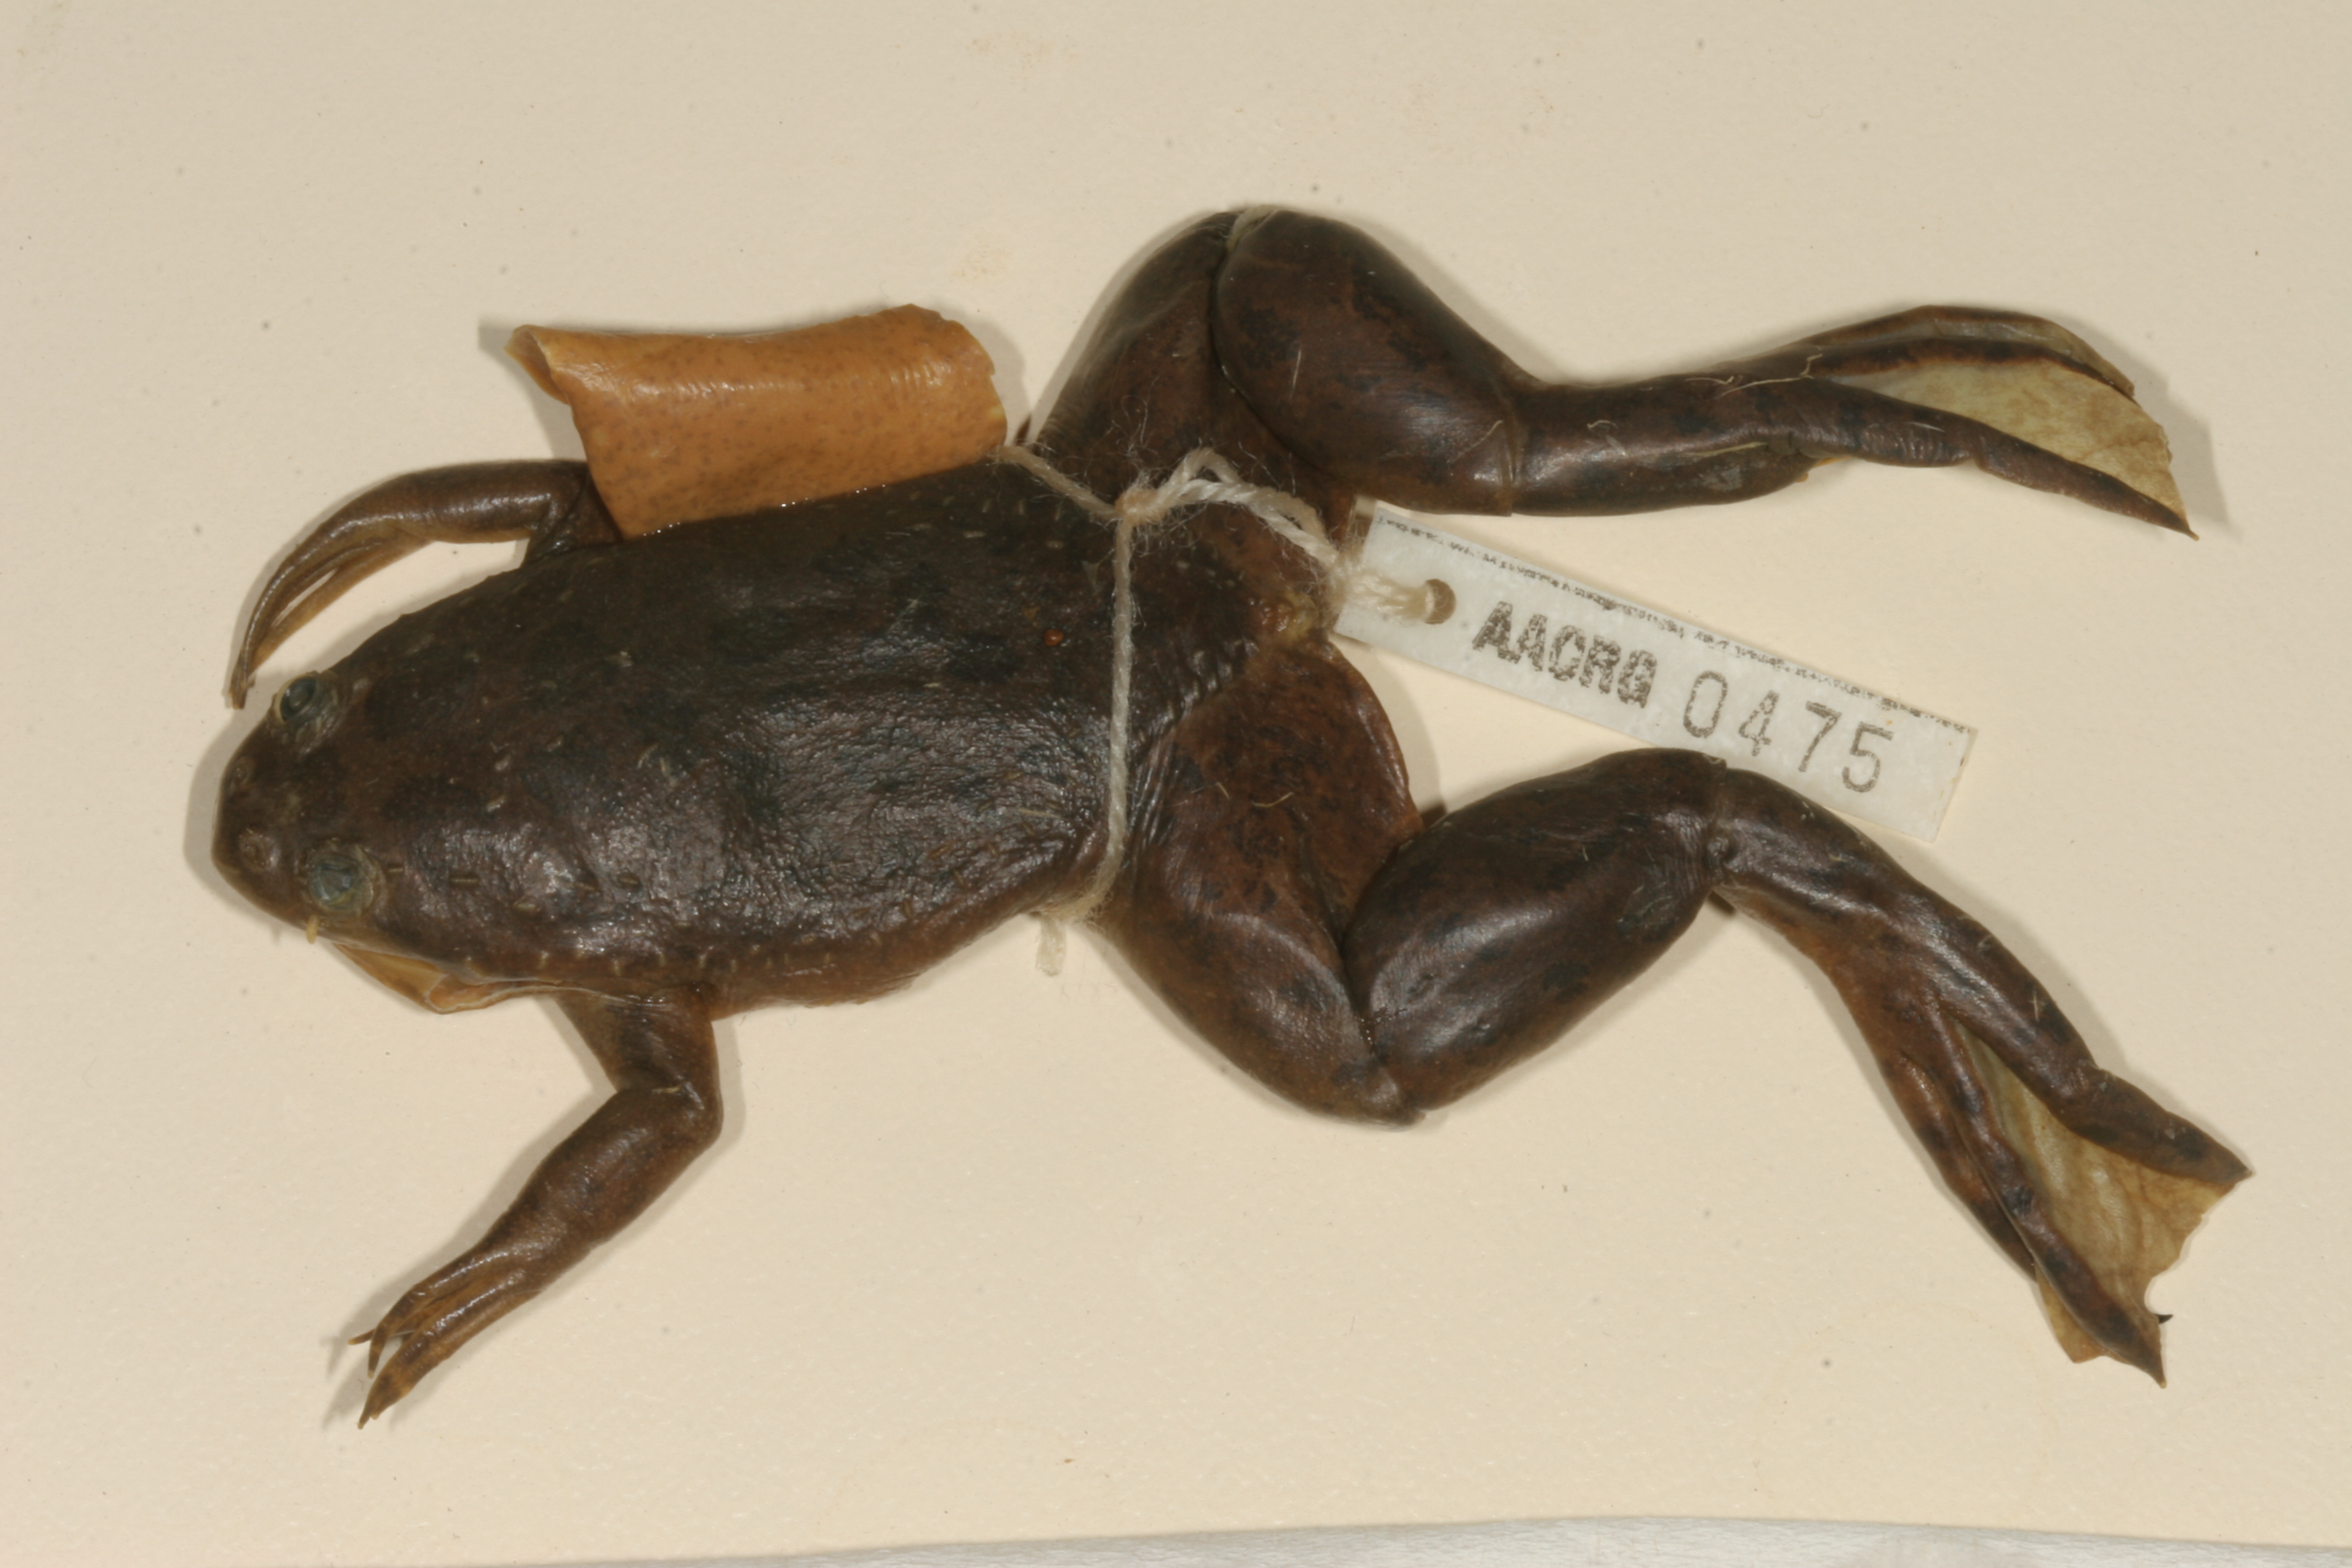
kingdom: Animalia
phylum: Chordata
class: Amphibia
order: Anura
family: Pipidae
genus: Xenopus
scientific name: Xenopus muelleri
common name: Muller's clawed frog
